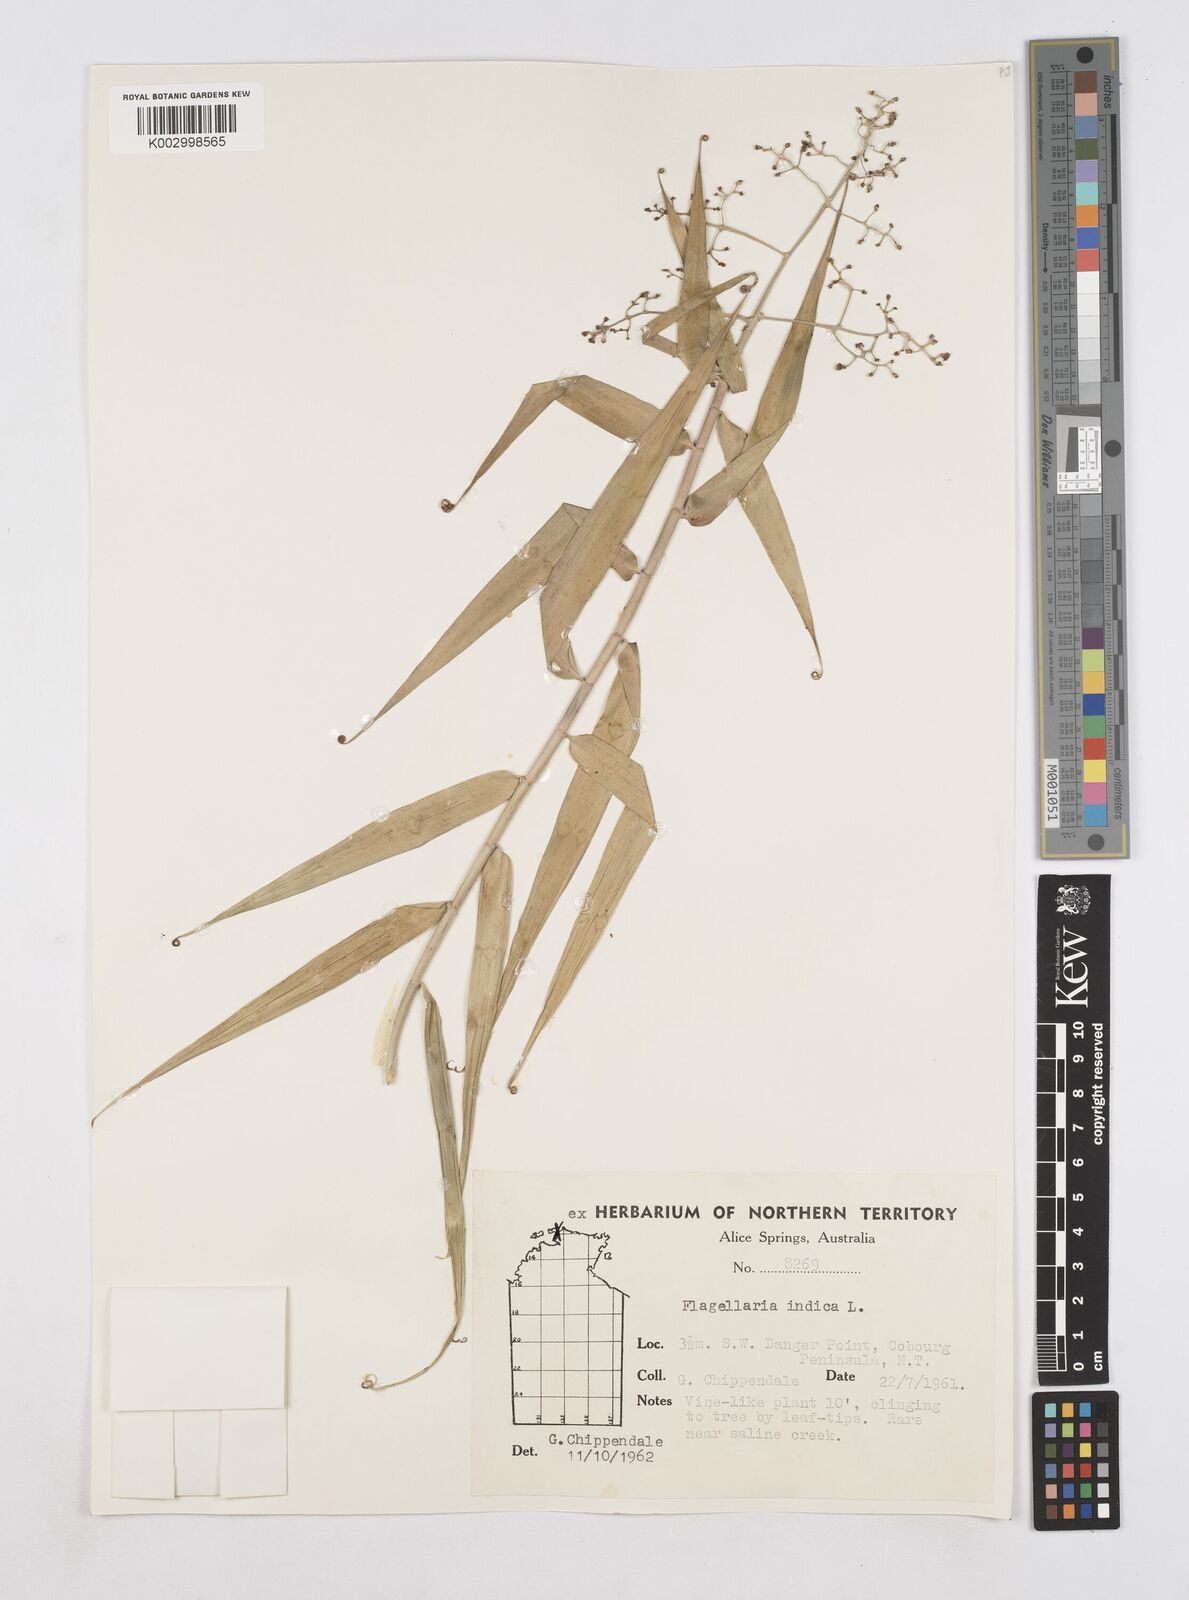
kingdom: Plantae
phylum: Tracheophyta
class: Liliopsida
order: Poales
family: Flagellariaceae
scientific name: Flagellariaceae
